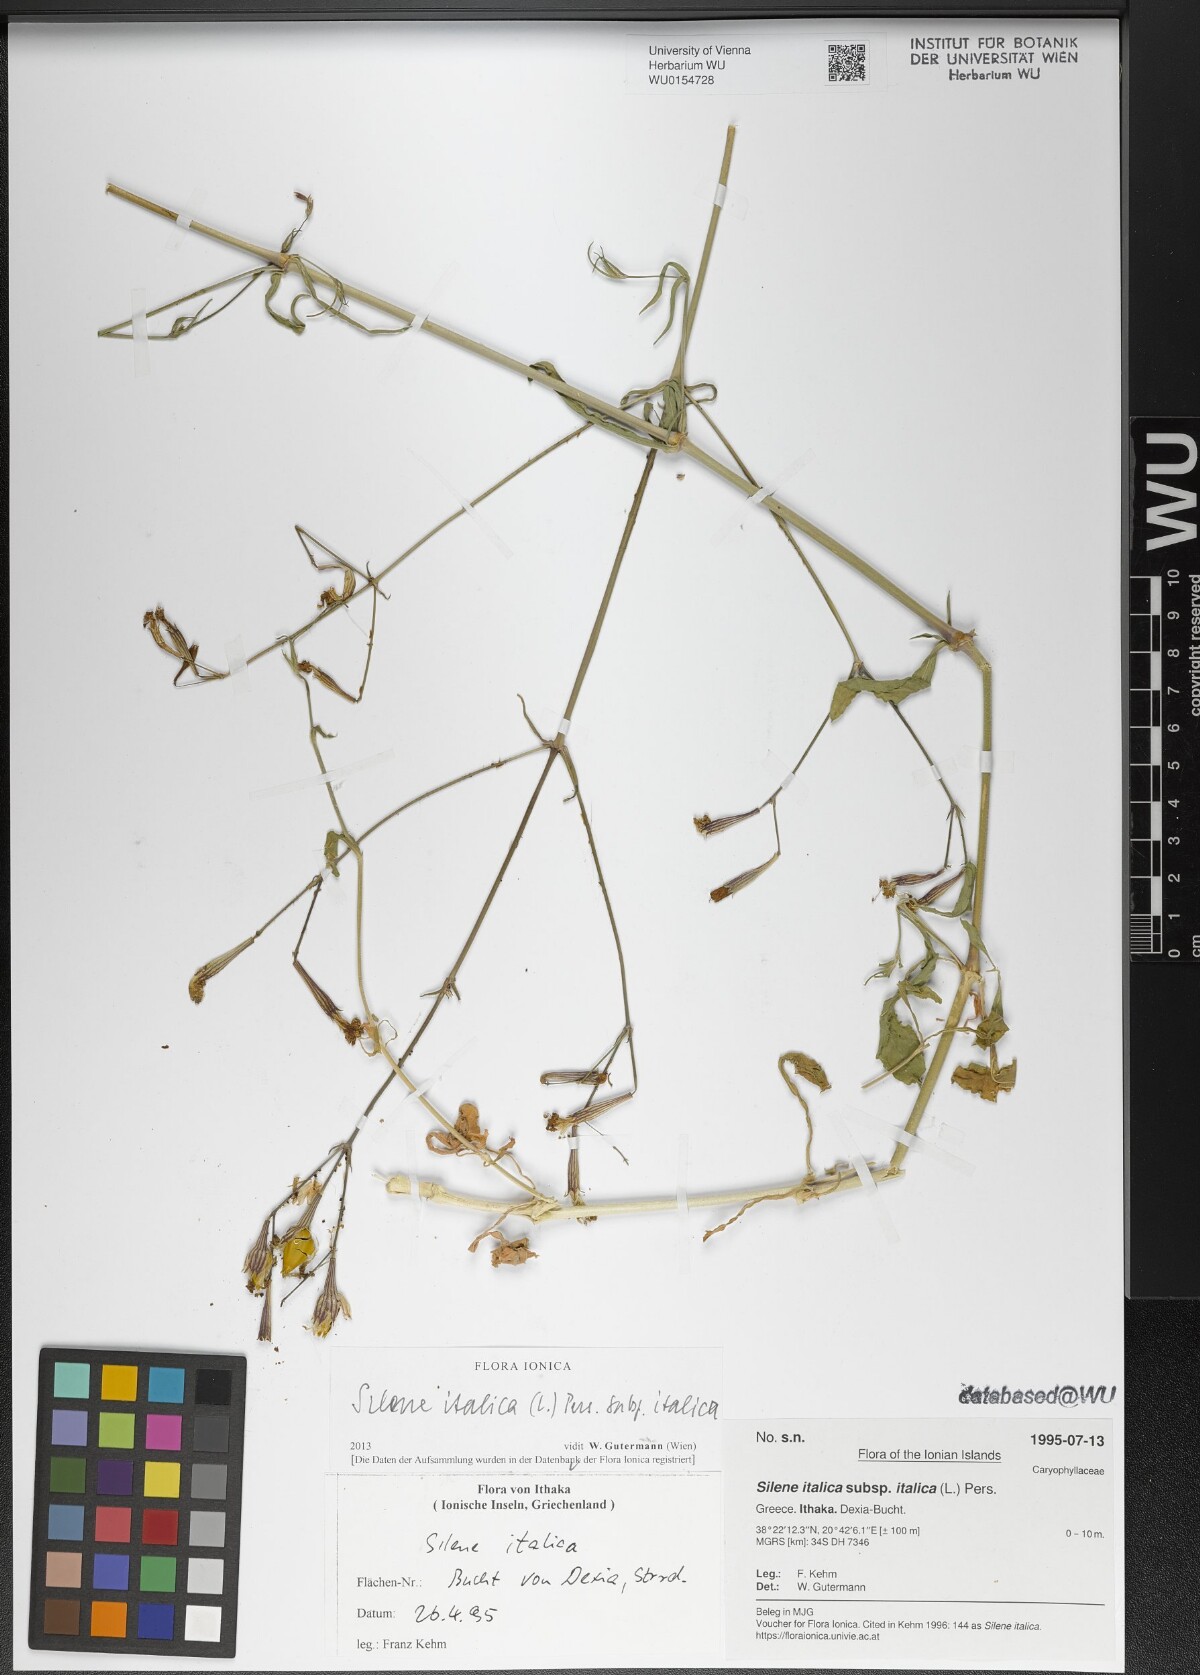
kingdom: Plantae
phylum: Tracheophyta
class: Magnoliopsida
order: Caryophyllales
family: Caryophyllaceae
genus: Silene
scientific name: Silene italica
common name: Italian catchfly
